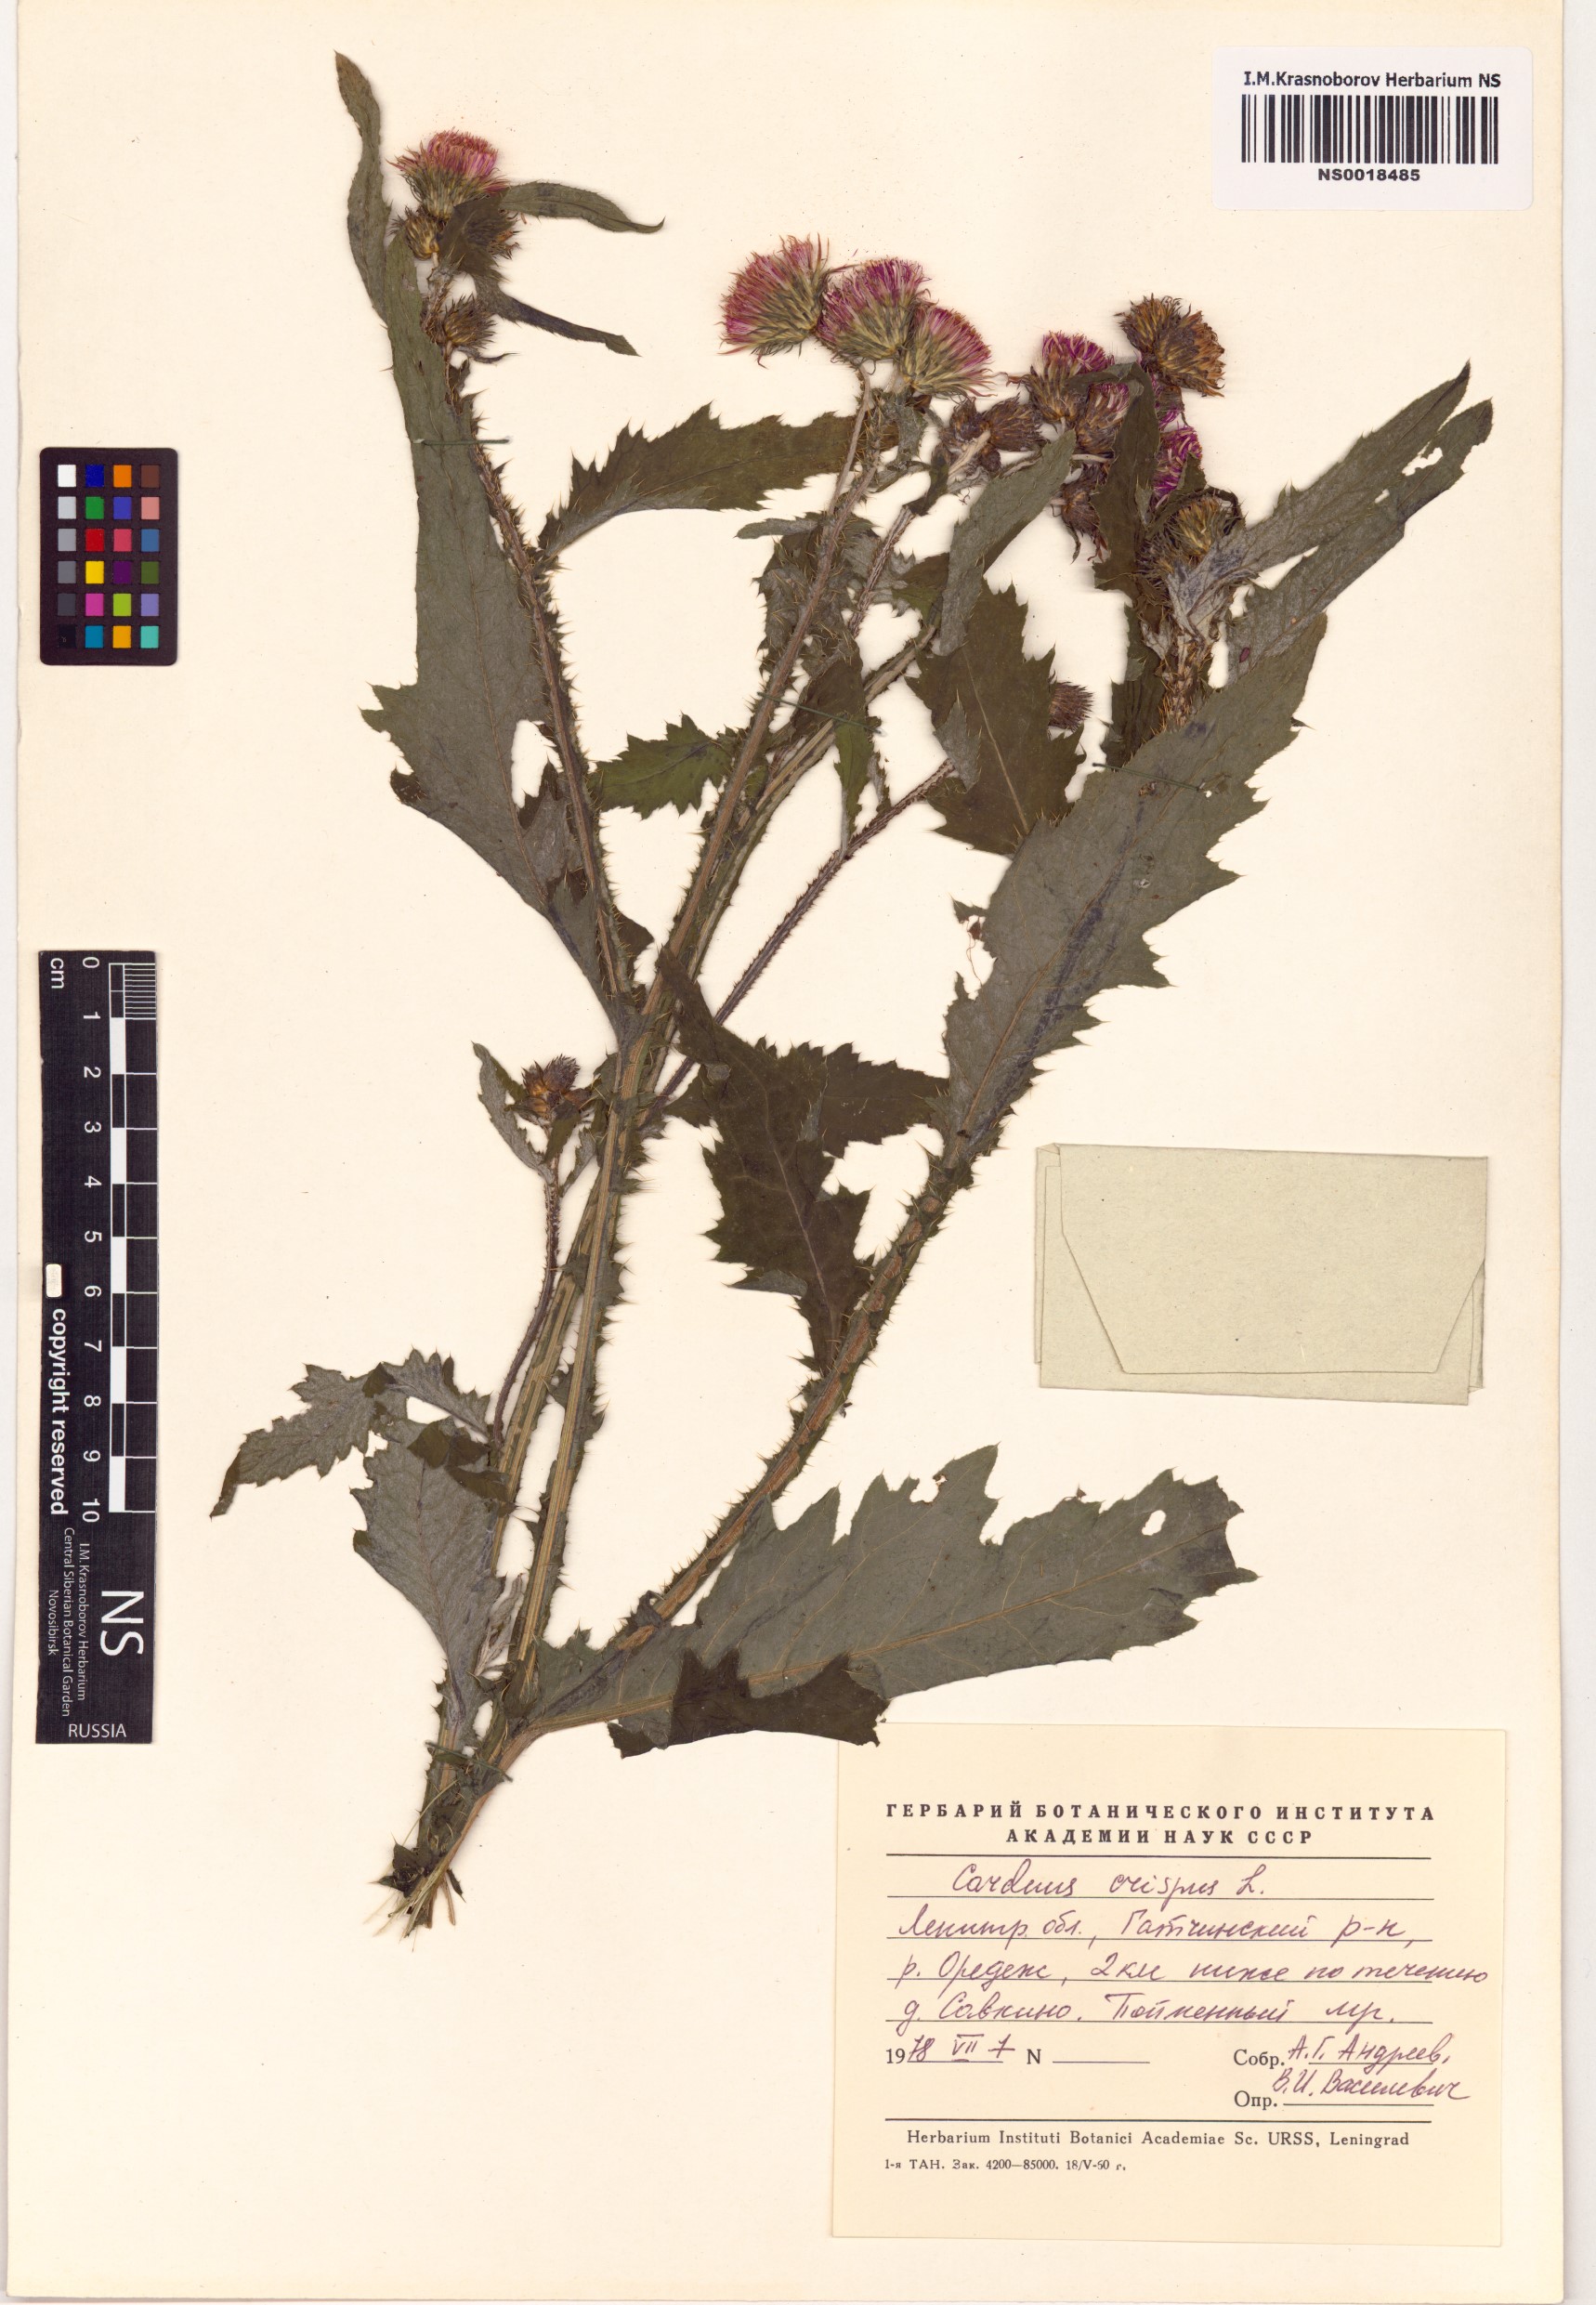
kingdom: Plantae
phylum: Tracheophyta
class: Magnoliopsida
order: Asterales
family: Asteraceae
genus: Carduus
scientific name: Carduus crispus
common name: Welted thistle
